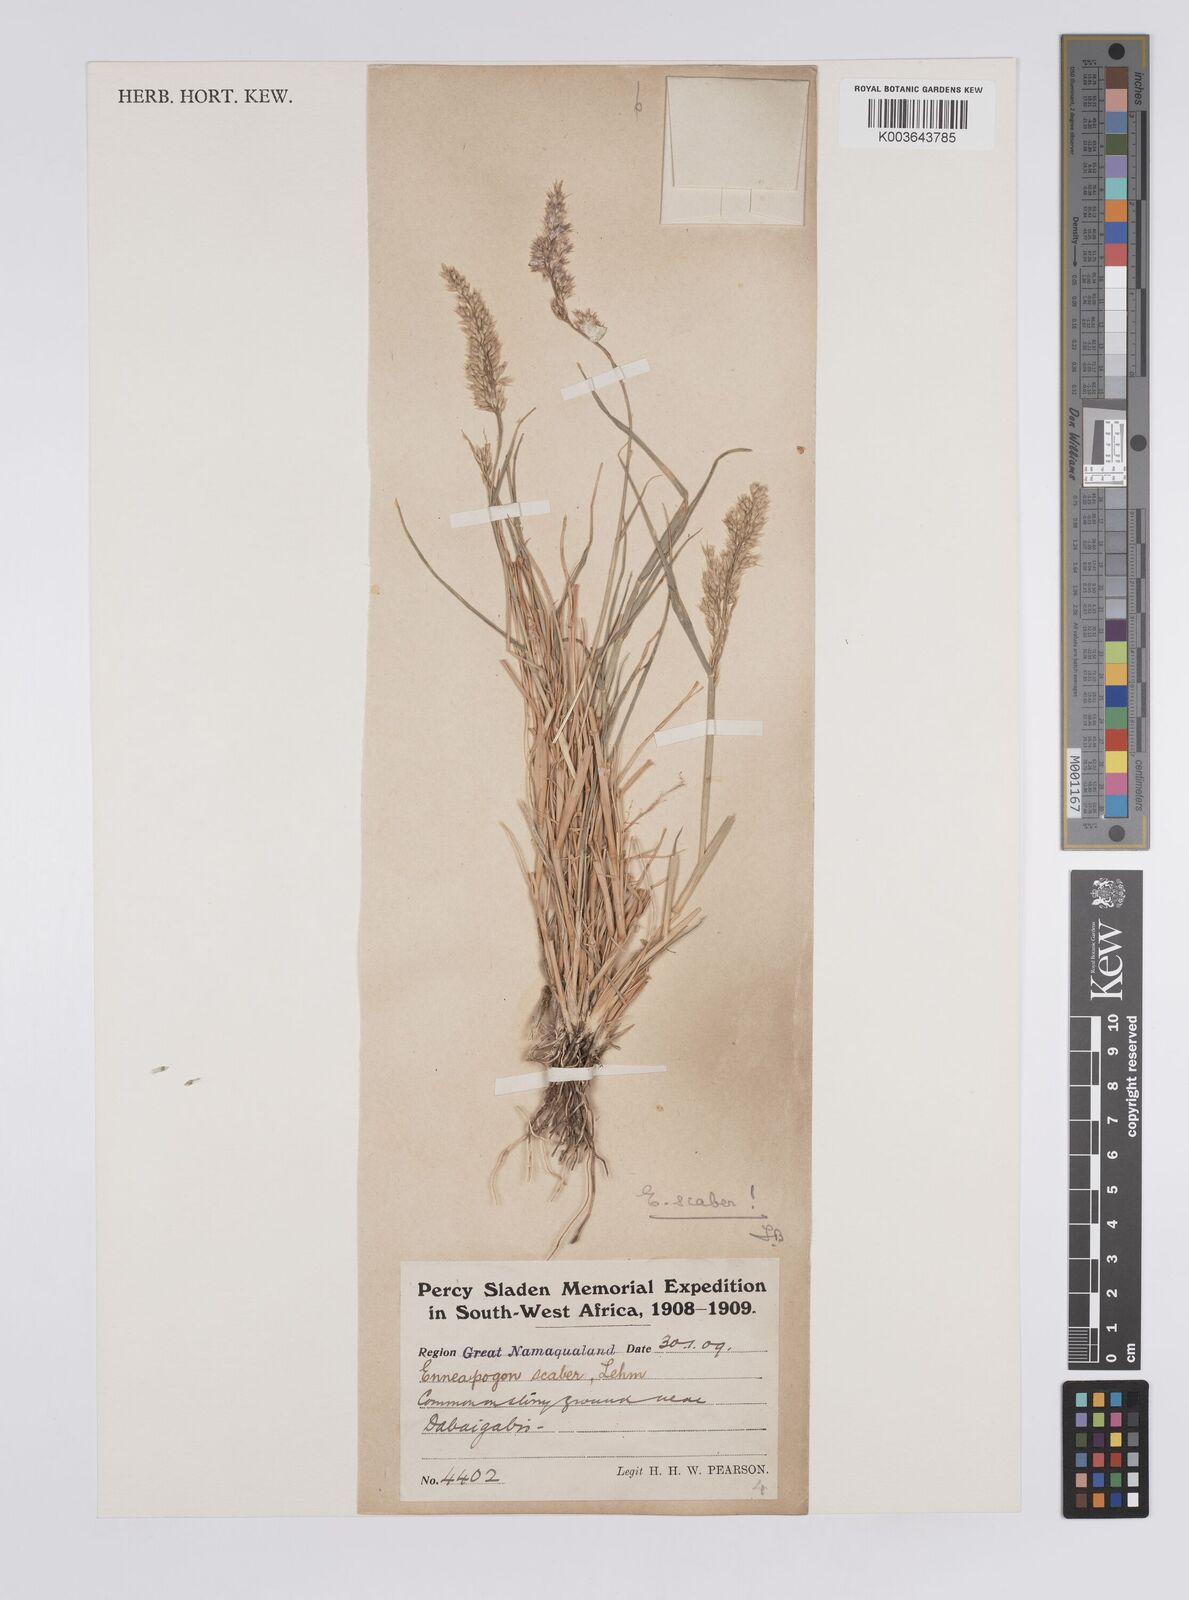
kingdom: Plantae
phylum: Tracheophyta
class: Liliopsida
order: Poales
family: Poaceae
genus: Enneapogon
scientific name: Enneapogon scaber
